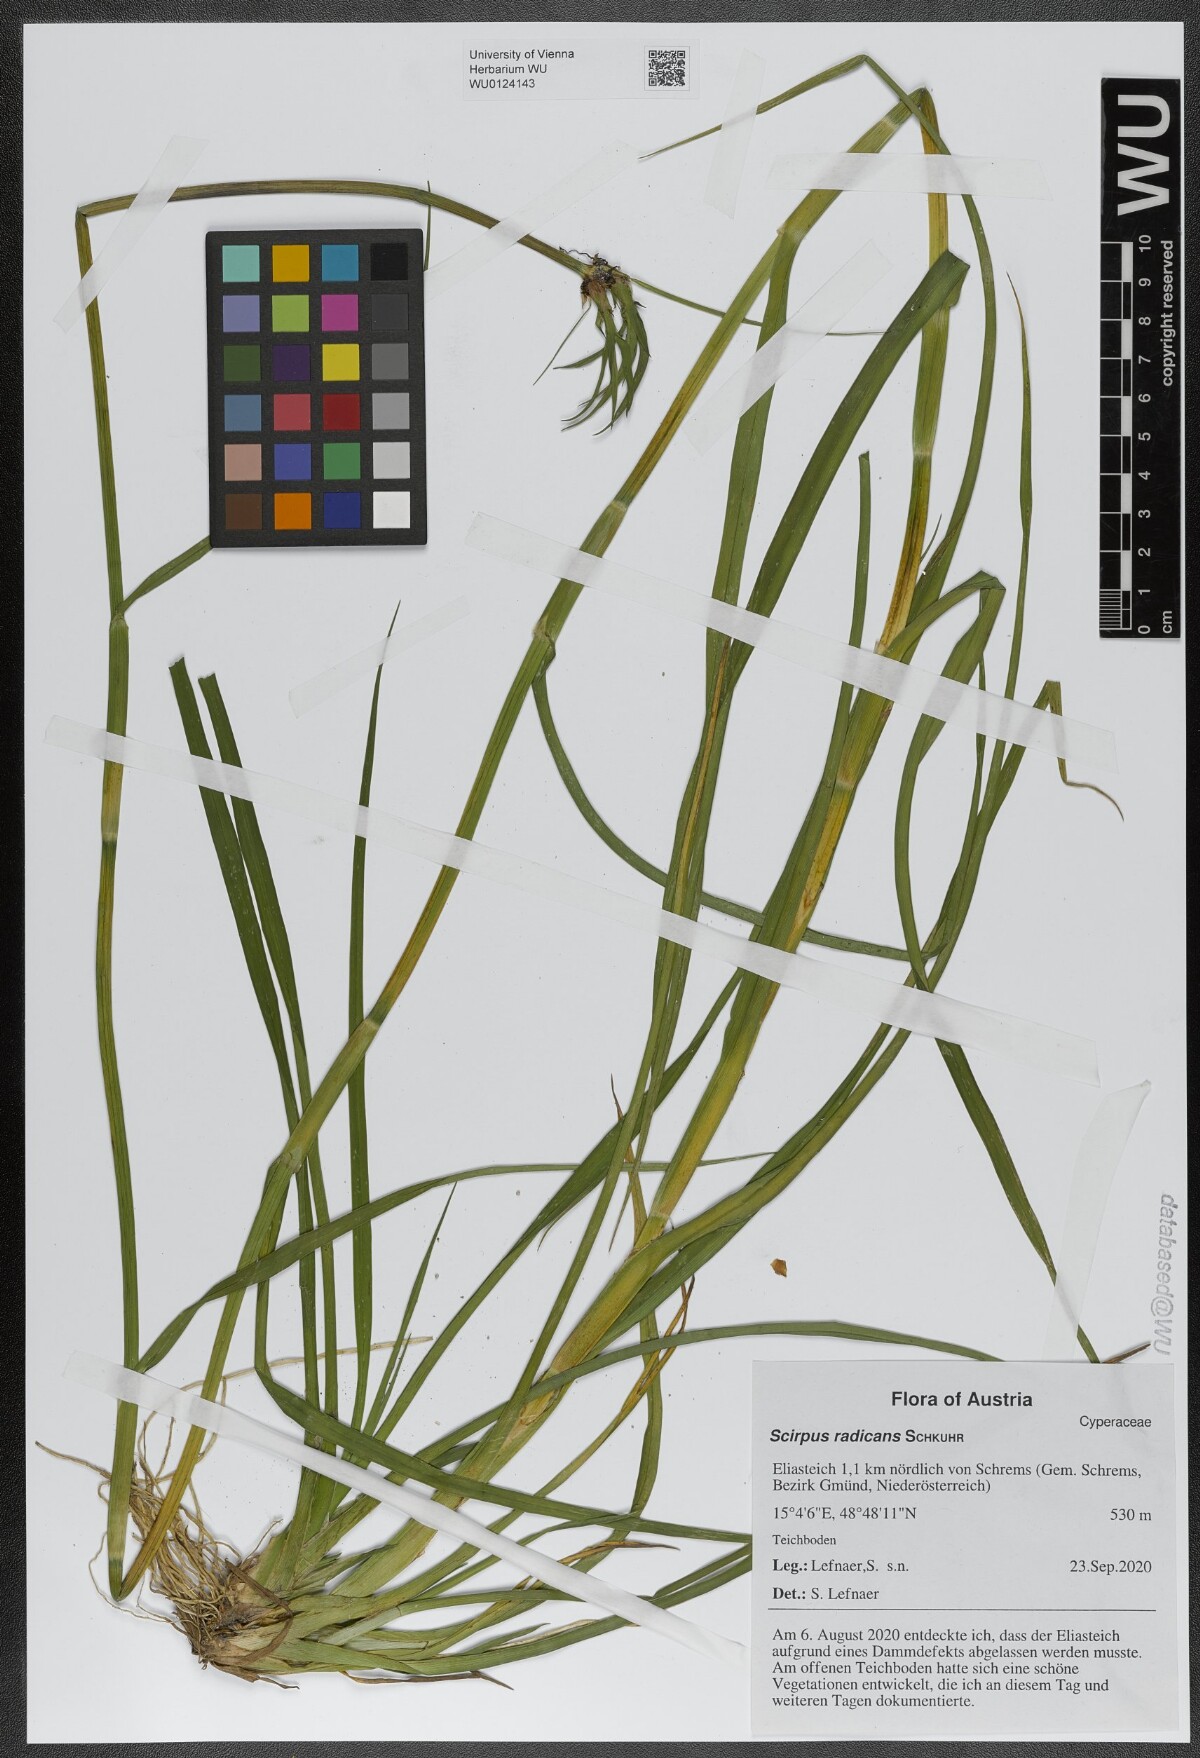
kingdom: Plantae
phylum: Tracheophyta
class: Liliopsida
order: Poales
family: Cyperaceae
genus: Scirpus
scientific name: Scirpus radicans
